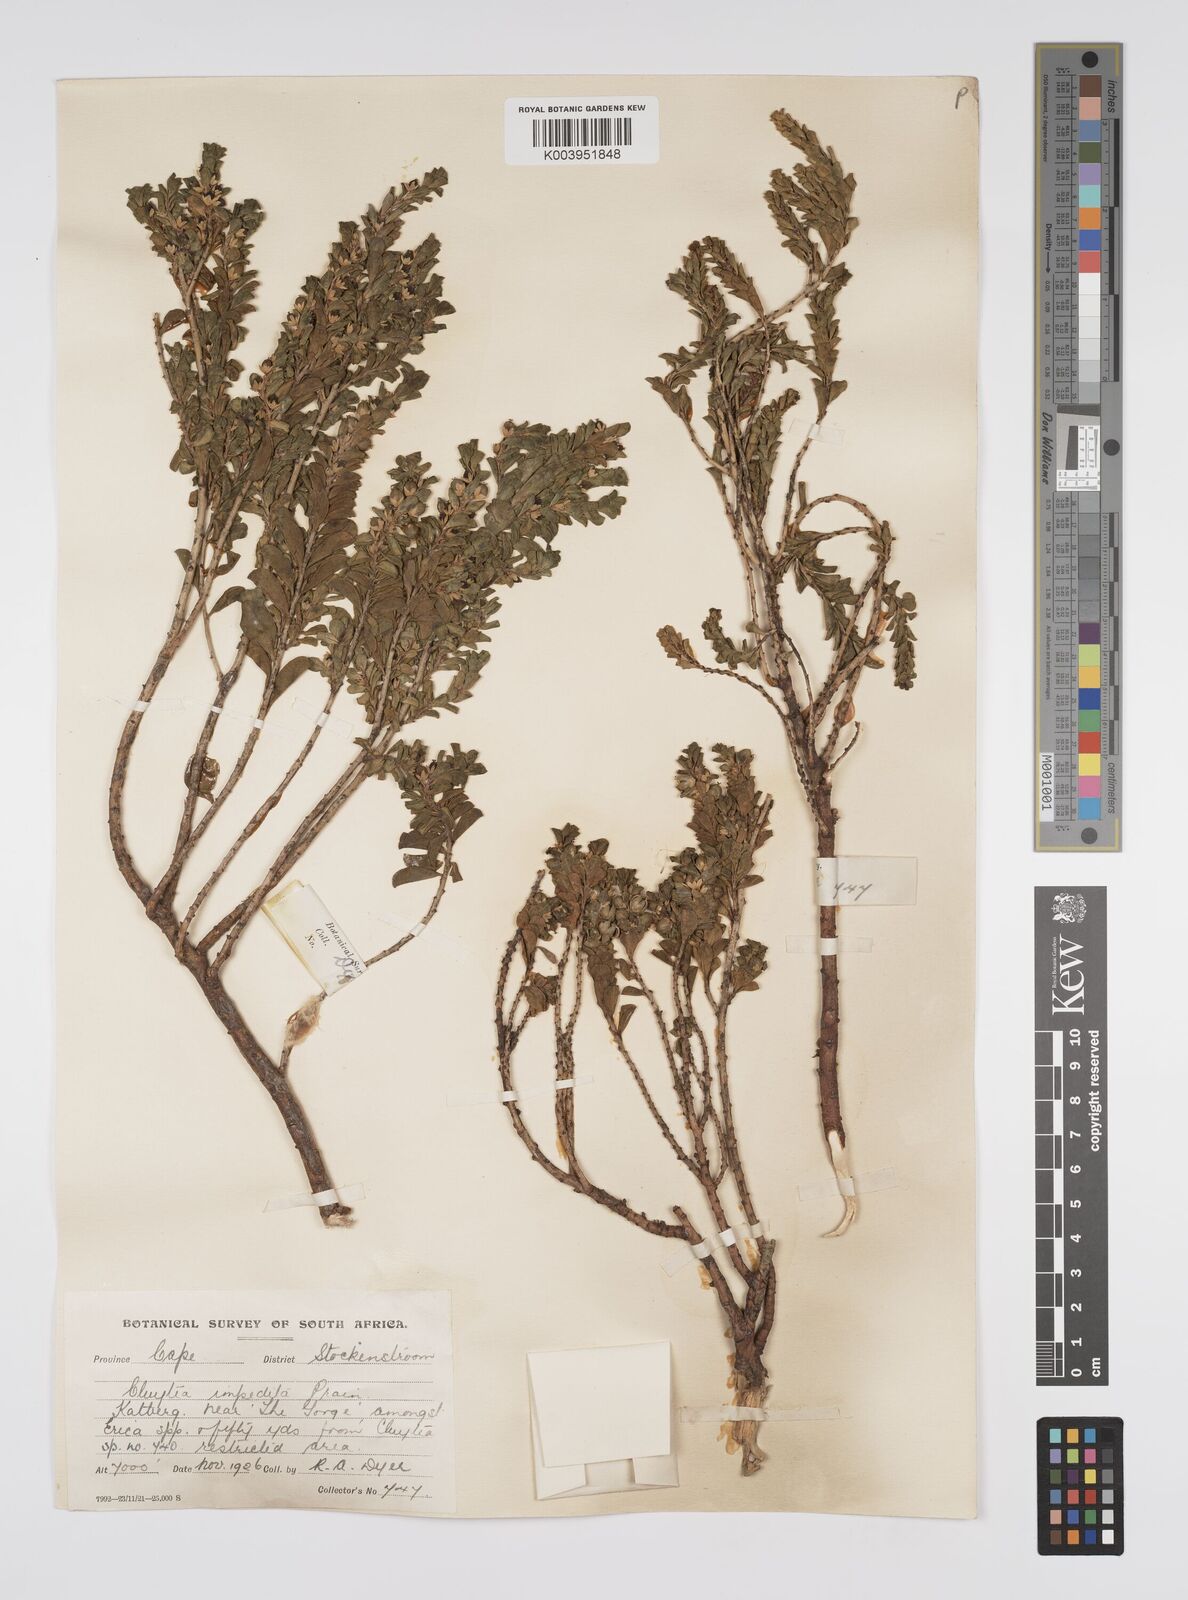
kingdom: Plantae
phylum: Tracheophyta
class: Magnoliopsida
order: Malpighiales
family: Peraceae
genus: Clutia
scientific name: Clutia impedita
